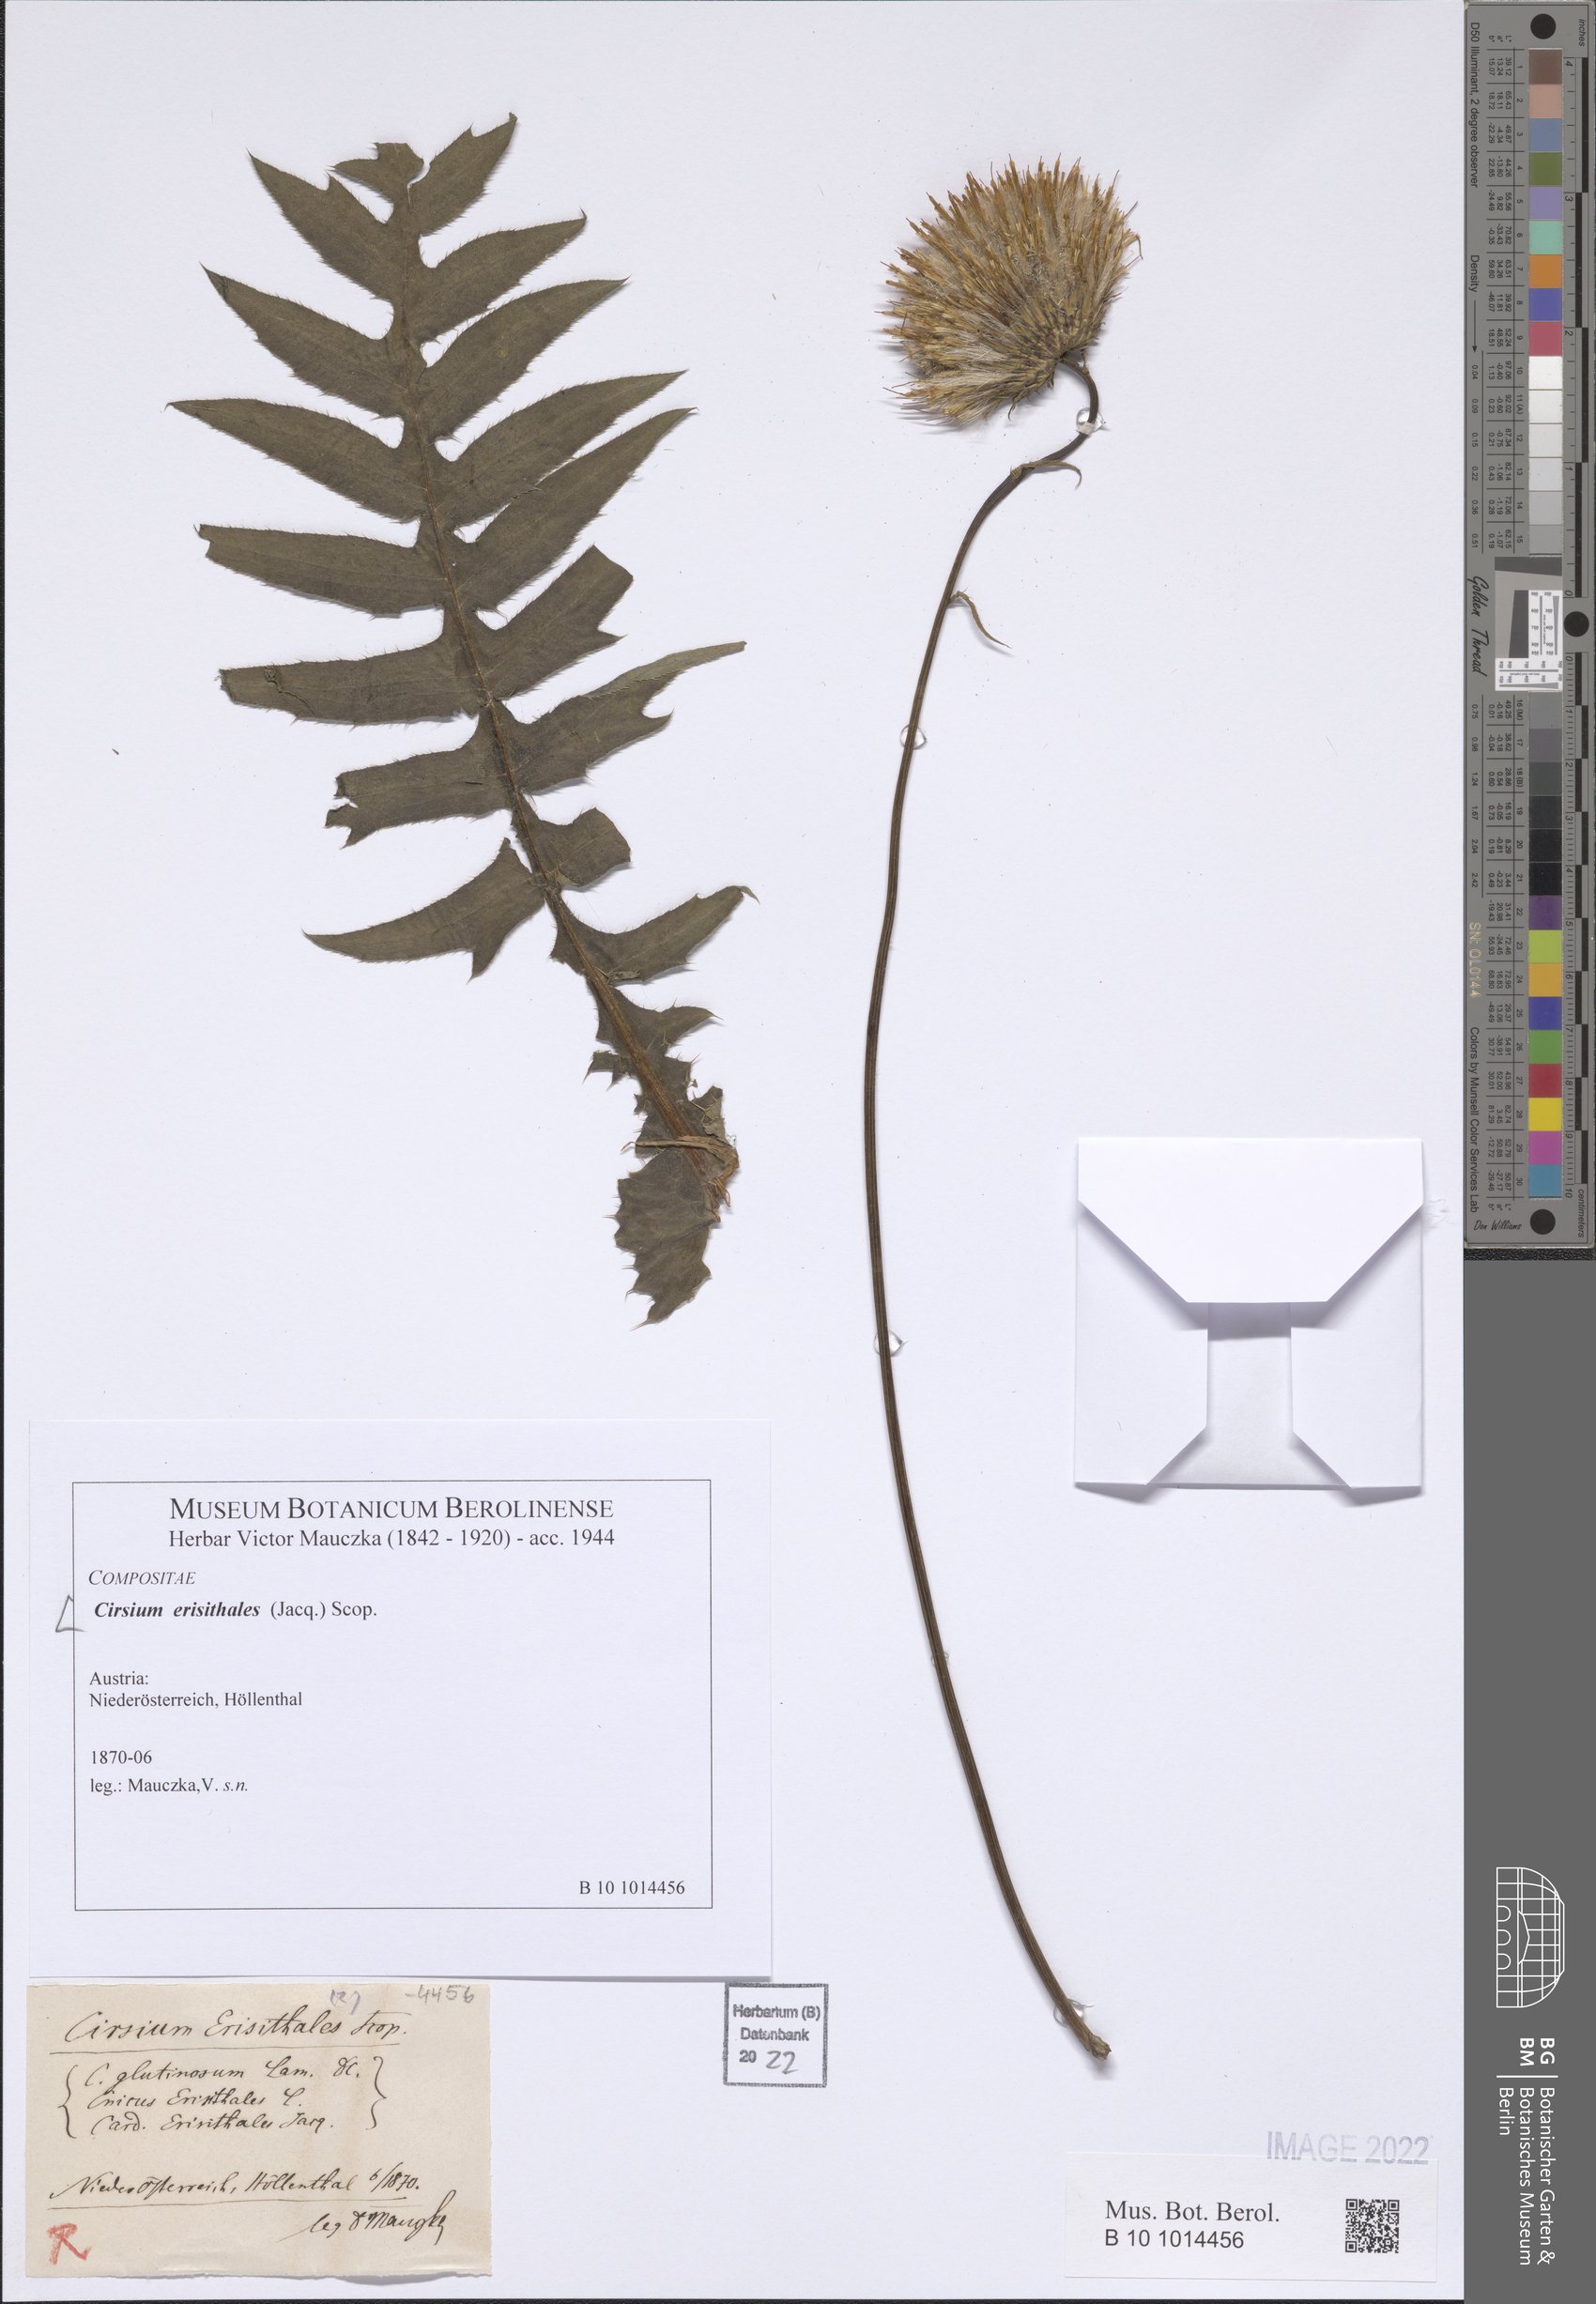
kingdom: Plantae
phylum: Tracheophyta
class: Magnoliopsida
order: Asterales
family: Asteraceae
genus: Cirsium
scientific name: Cirsium erisithales
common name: Yellow thistle
